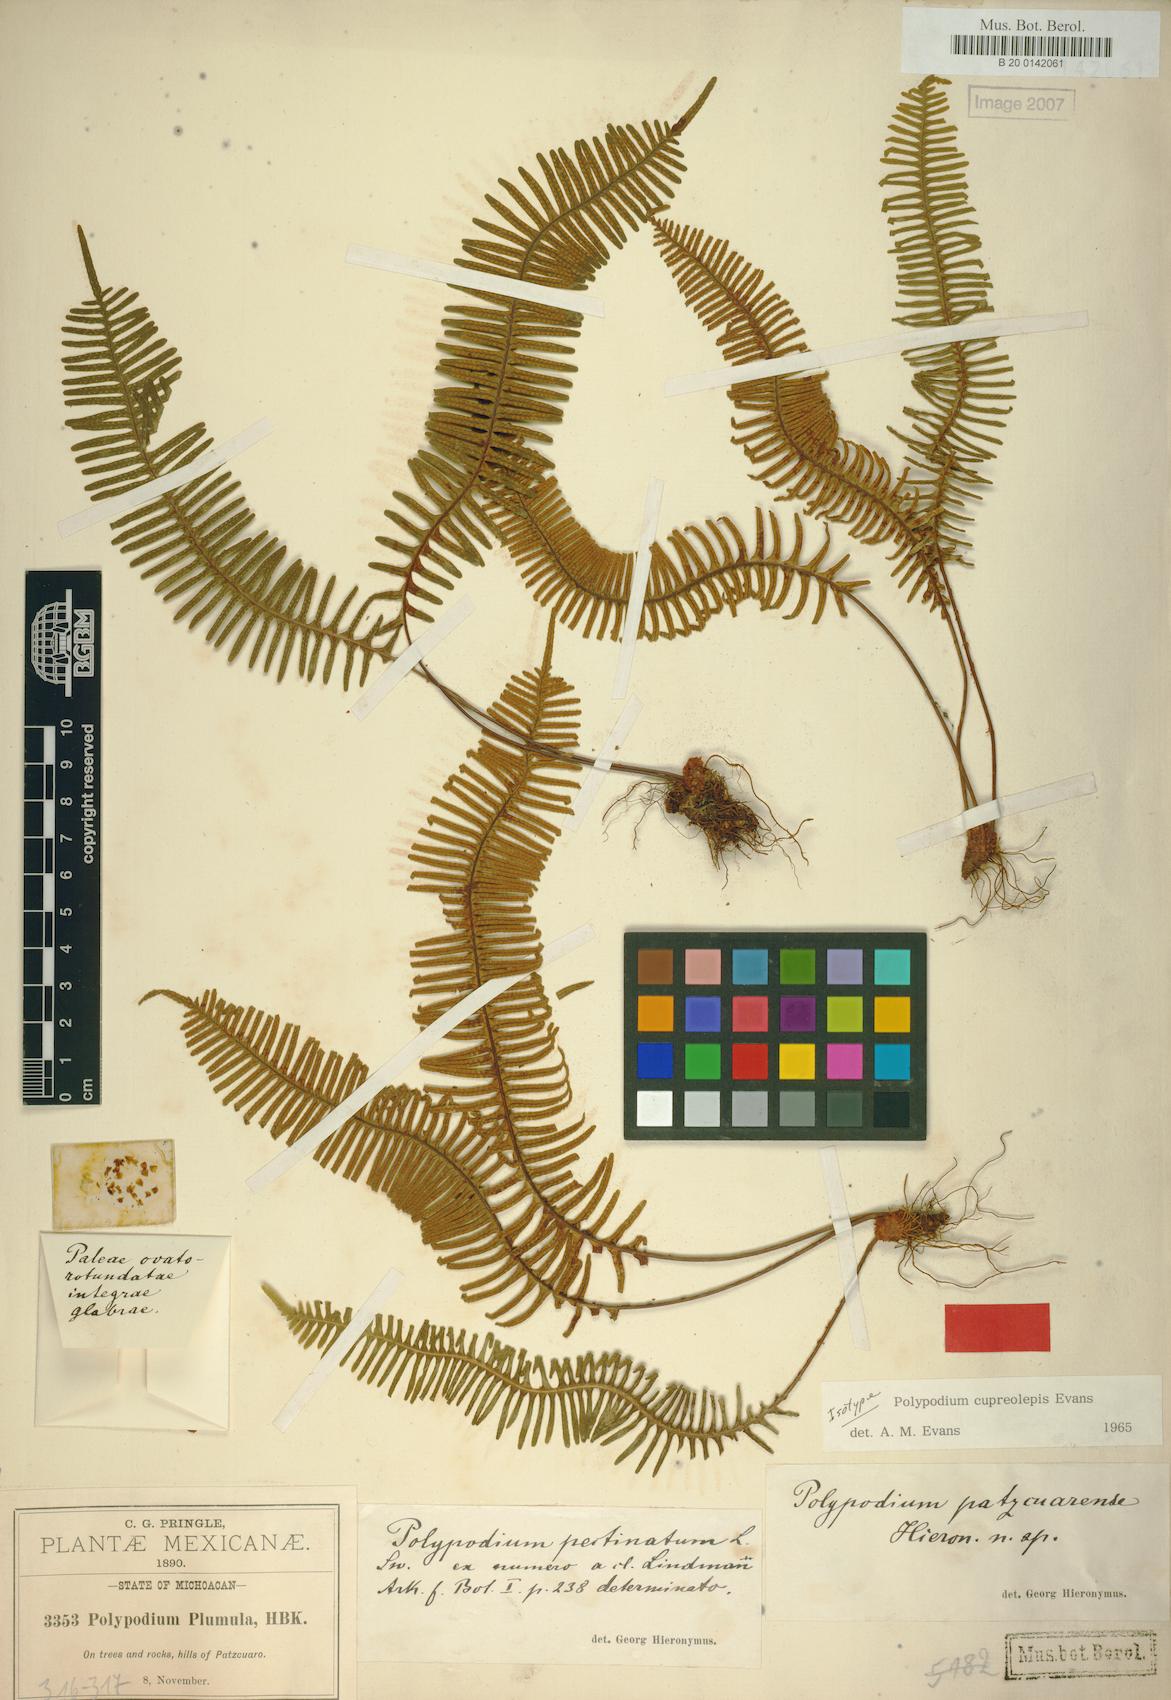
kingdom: Plantae
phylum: Tracheophyta
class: Polypodiopsida
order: Polypodiales
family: Polypodiaceae
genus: Pecluma
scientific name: Pecluma alfredii
